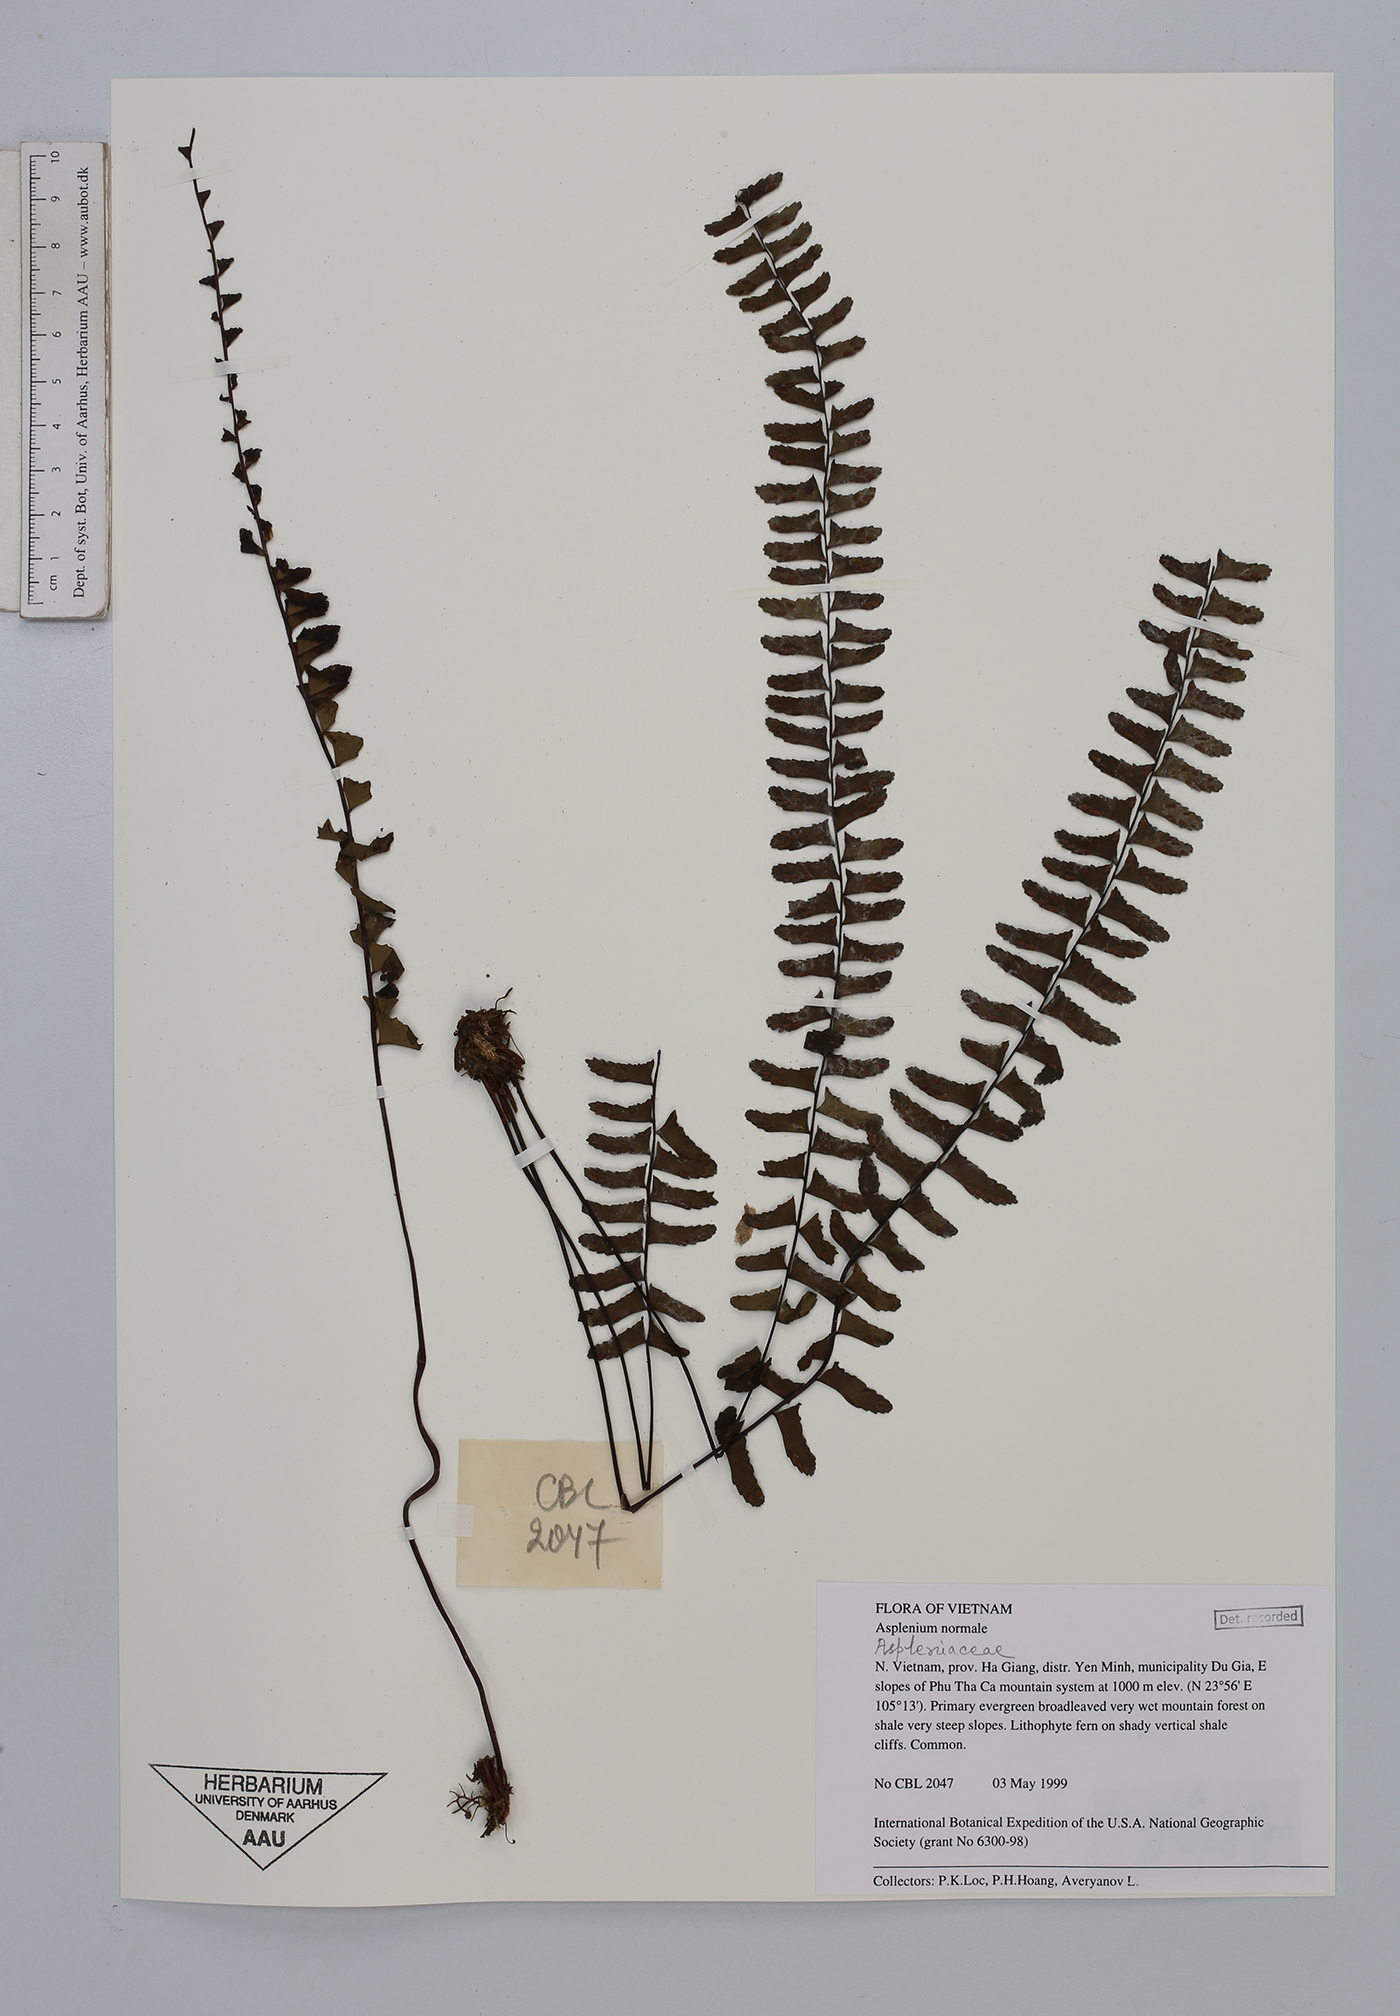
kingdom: Plantae
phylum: Tracheophyta
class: Polypodiopsida
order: Polypodiales
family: Aspleniaceae
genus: Asplenium
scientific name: Asplenium normale
